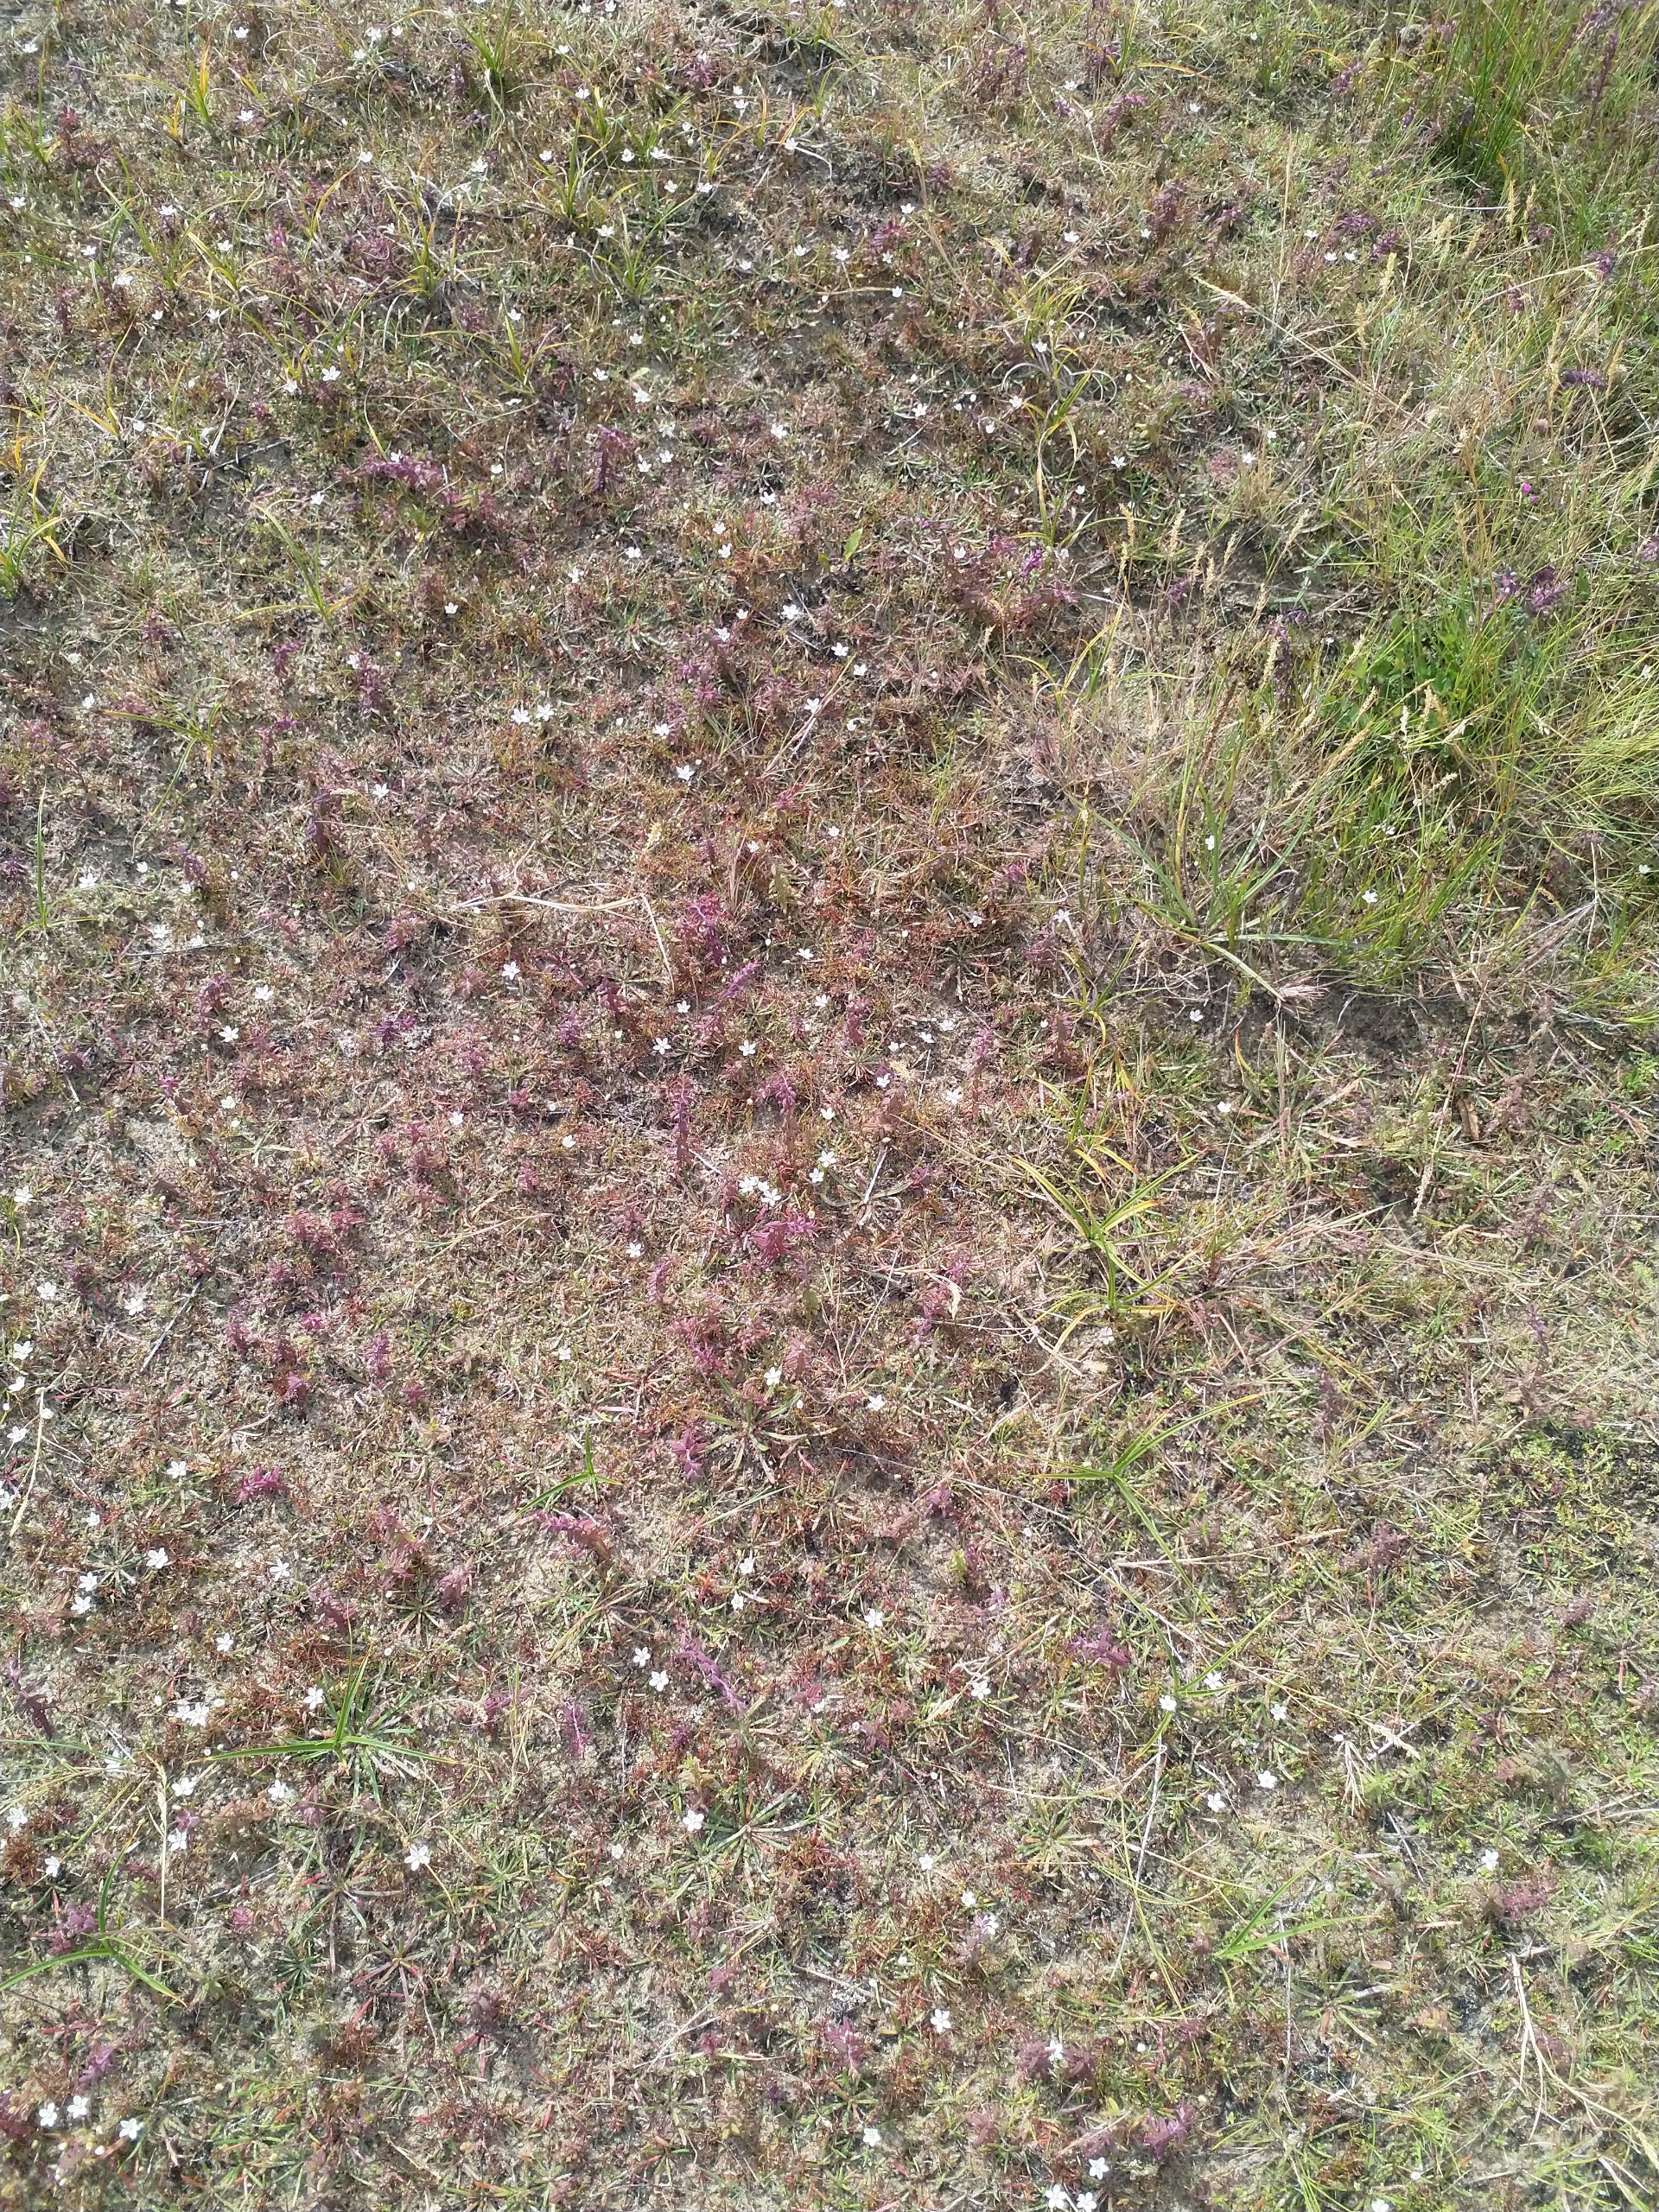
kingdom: Plantae
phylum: Tracheophyta
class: Magnoliopsida
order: Caryophyllales
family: Caryophyllaceae
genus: Sagina
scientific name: Sagina nodosa
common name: Knude-firling
